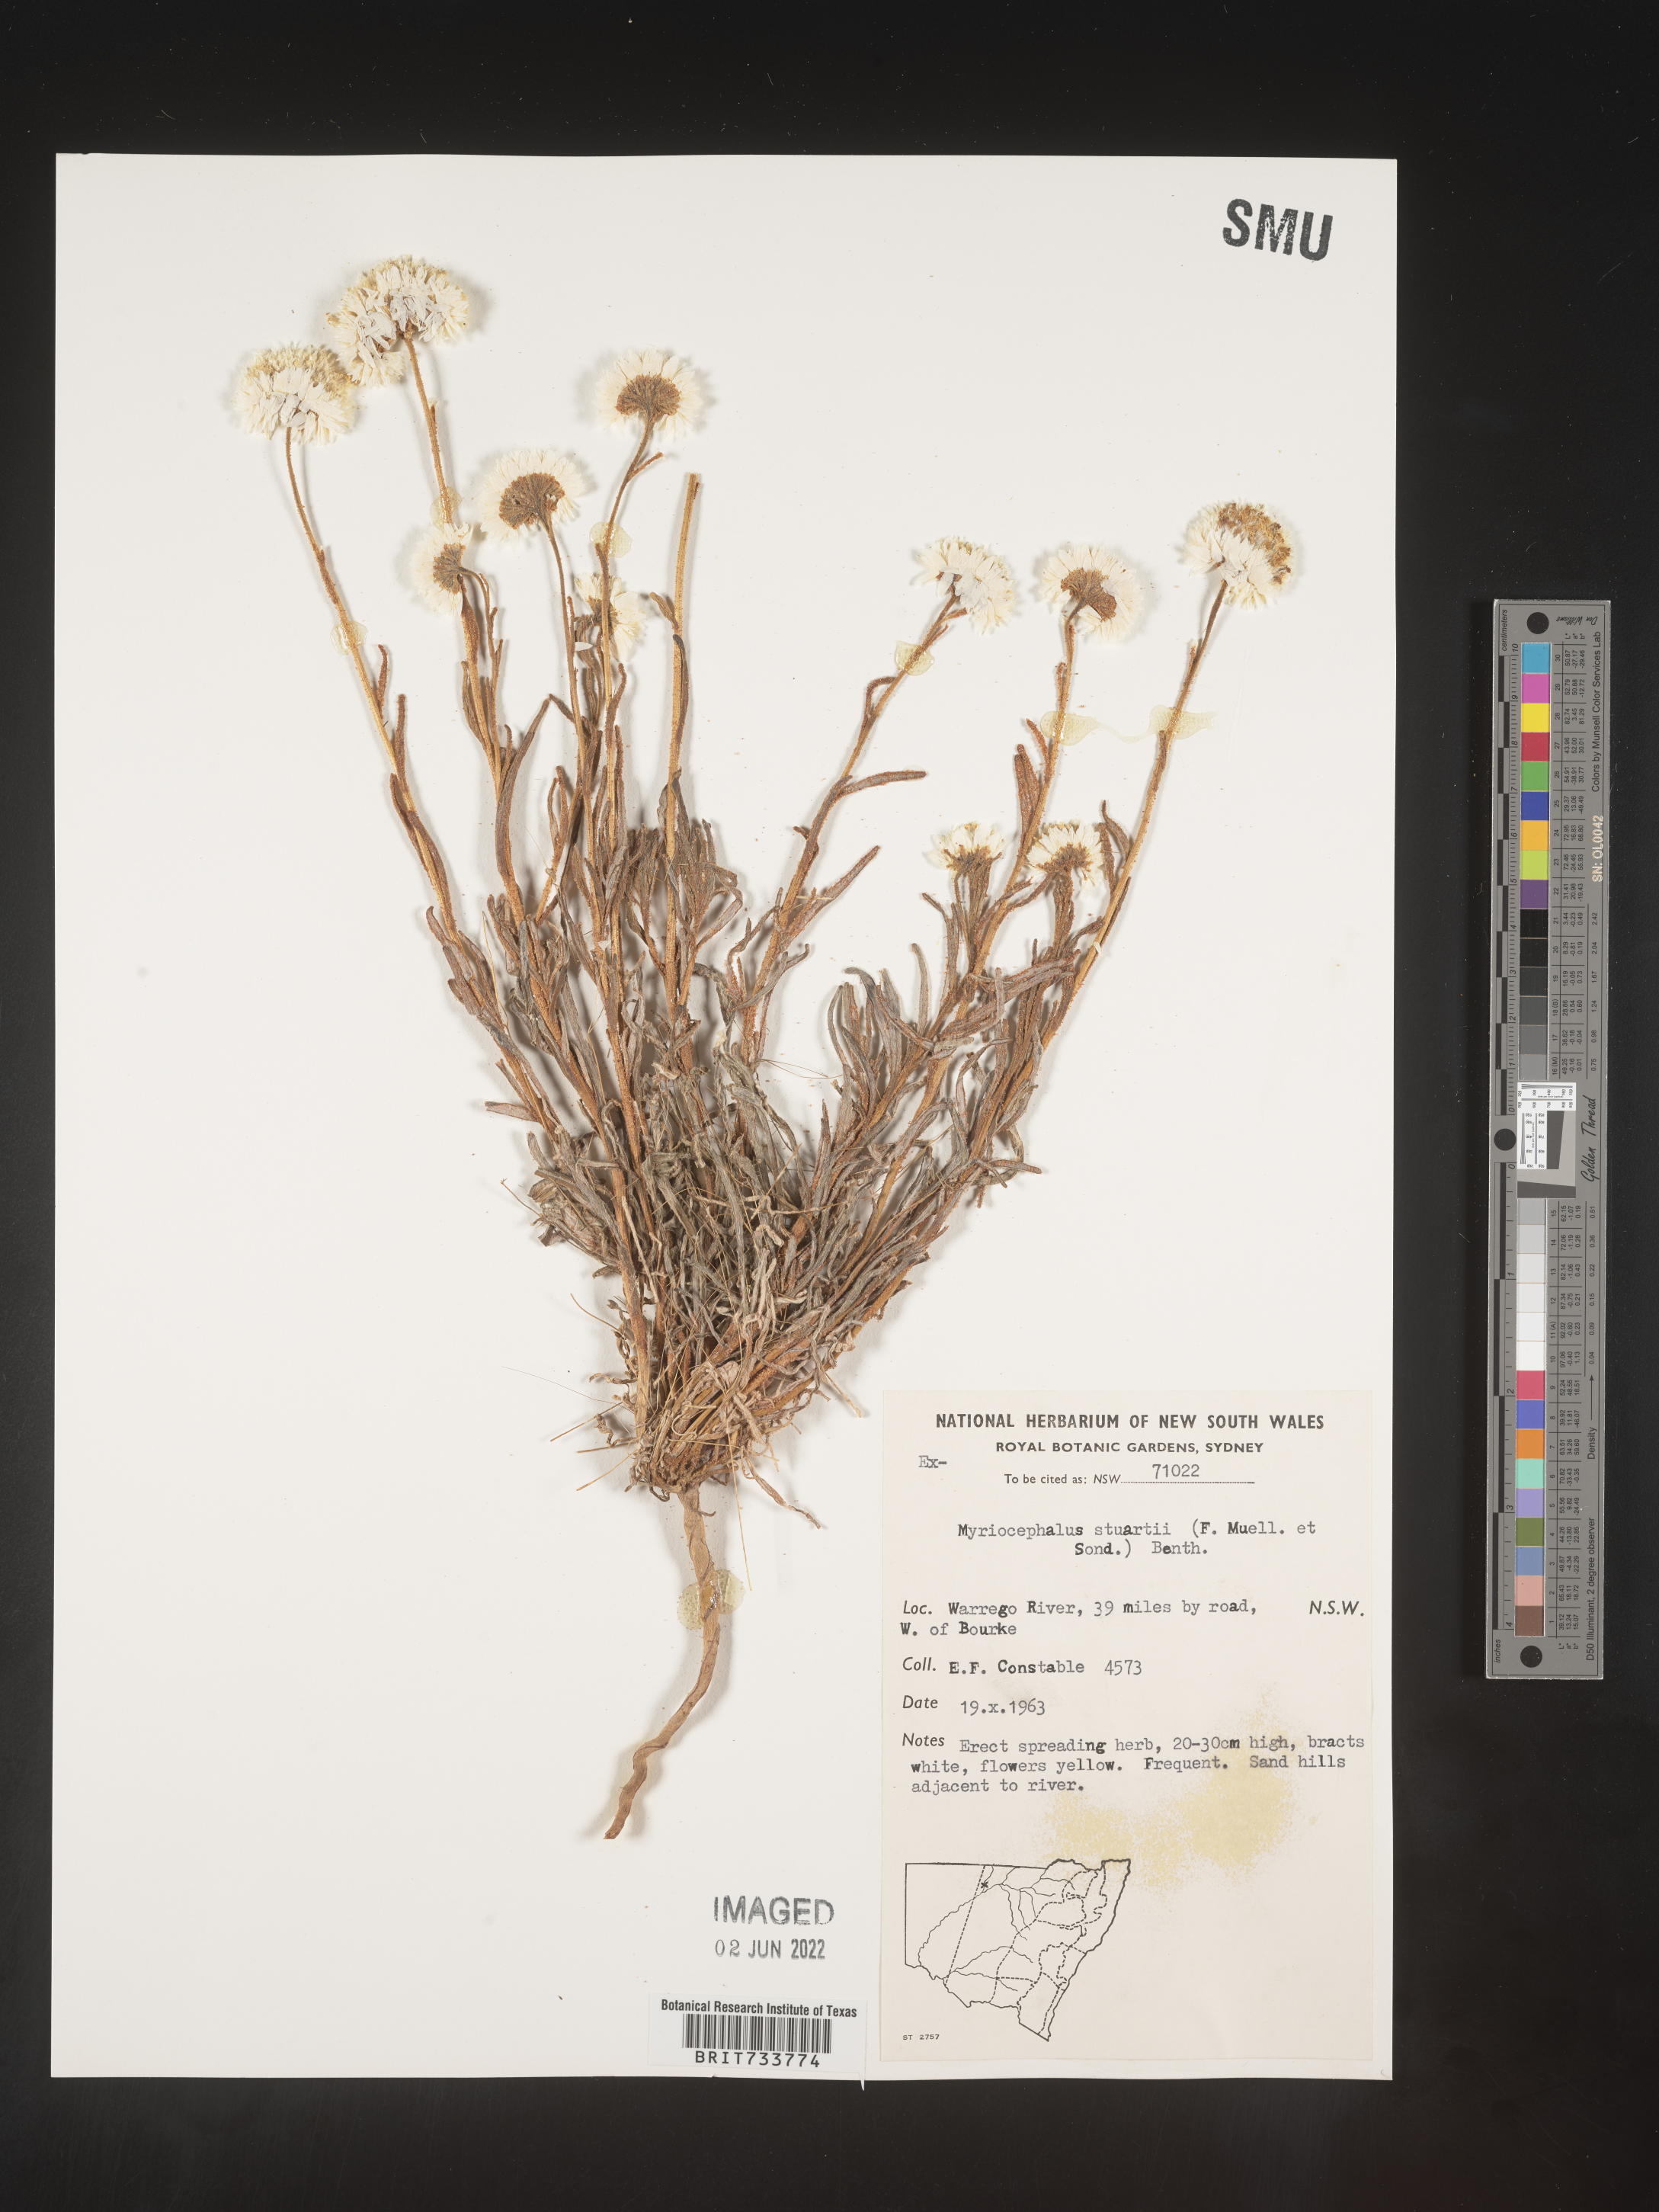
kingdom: Plantae
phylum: Tracheophyta
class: Magnoliopsida
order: Asterales
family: Asteraceae
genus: Myriocephalus
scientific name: Myriocephalus
